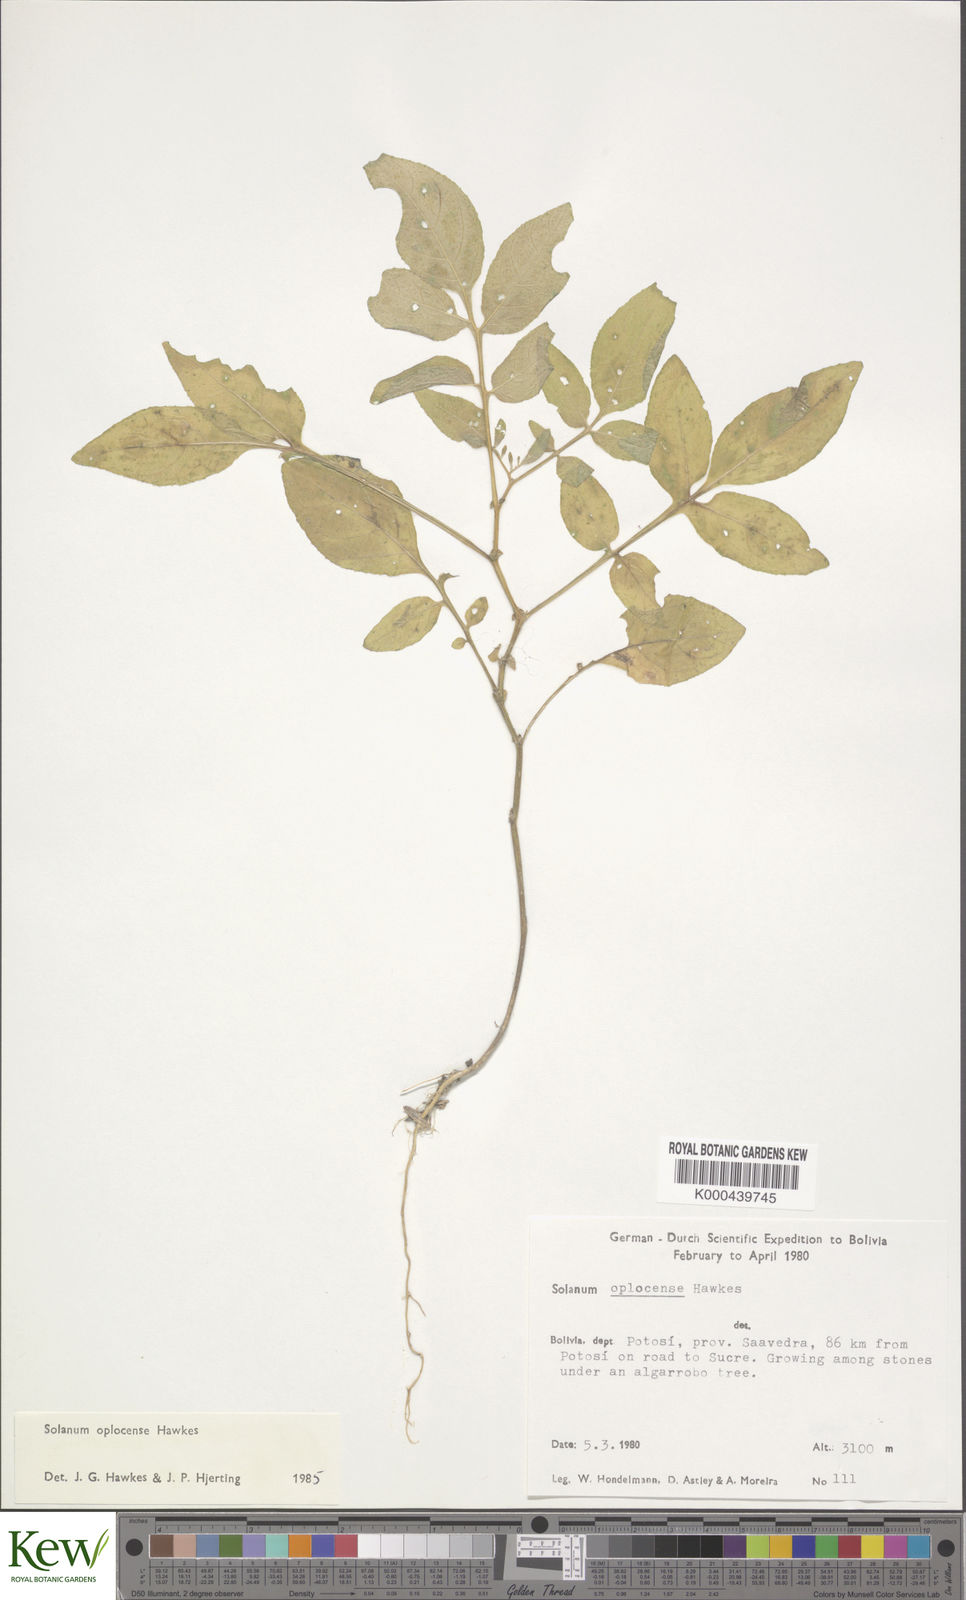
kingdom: Plantae
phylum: Tracheophyta
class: Magnoliopsida
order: Solanales
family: Solanaceae
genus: Solanum
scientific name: Solanum brevicaule
